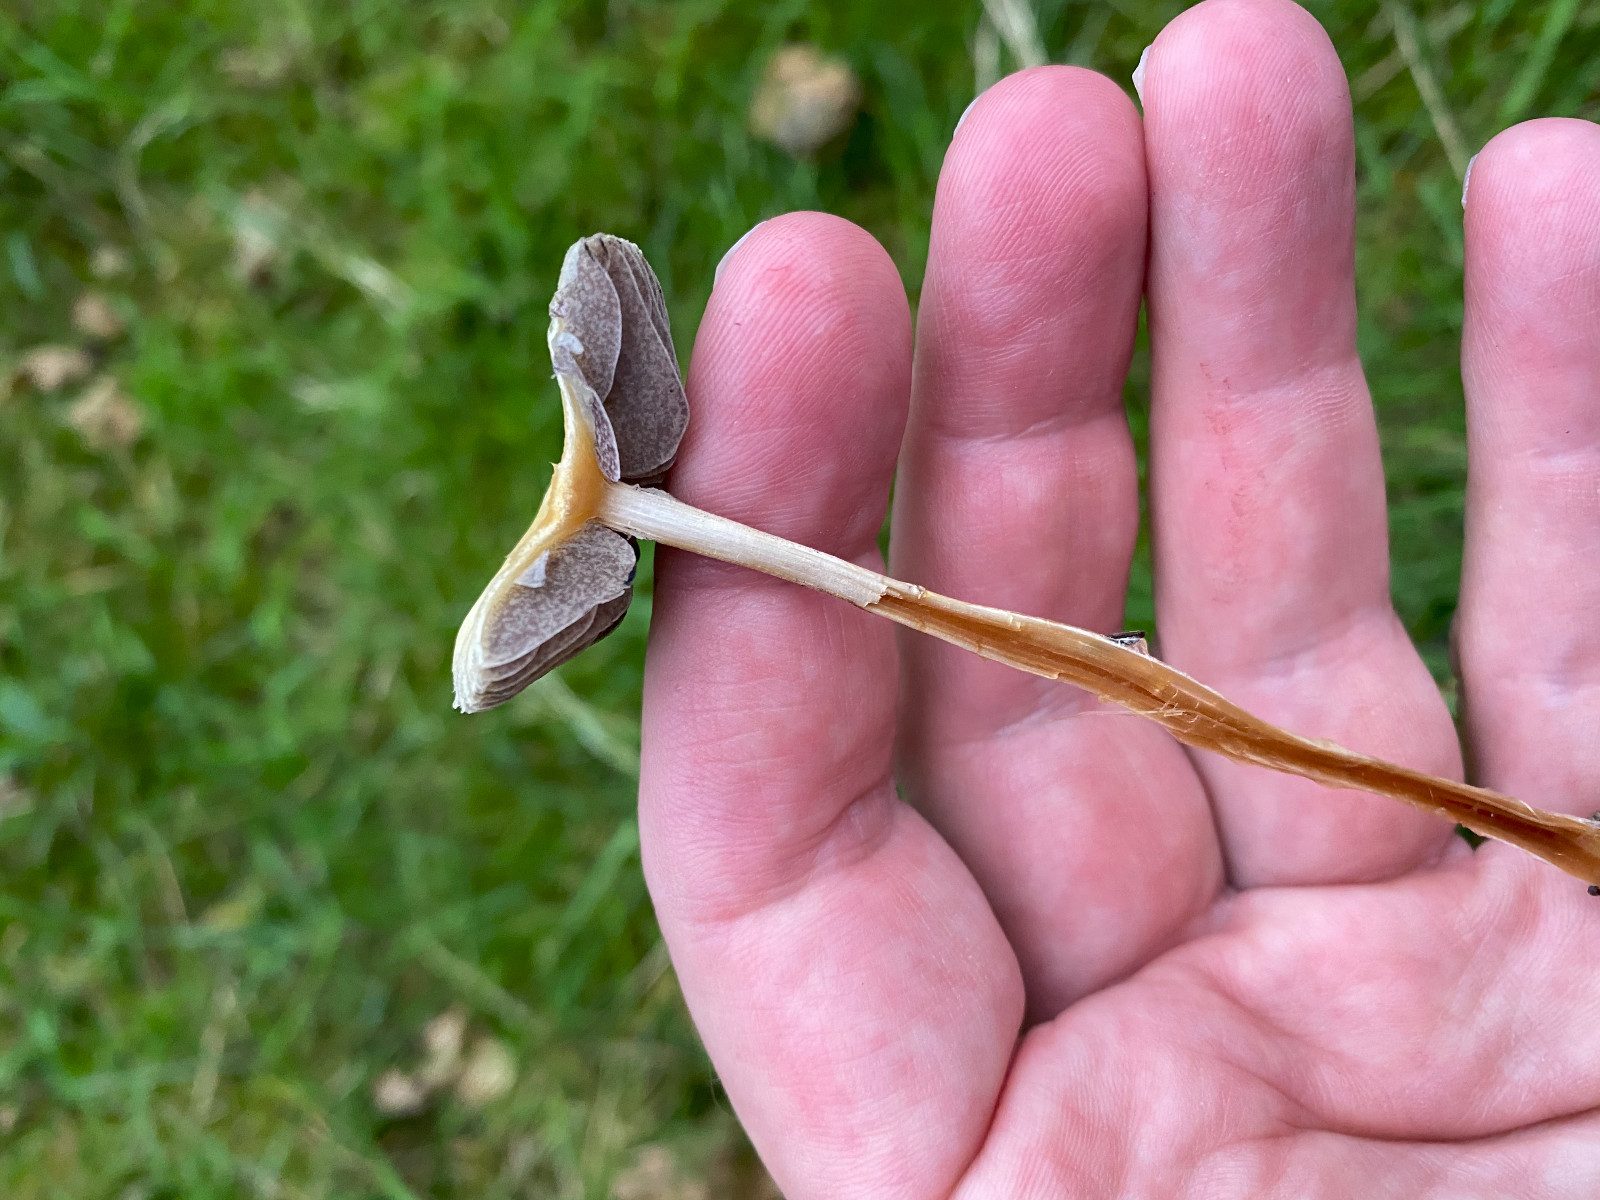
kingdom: Fungi
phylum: Basidiomycota
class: Agaricomycetes
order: Agaricales
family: Strophariaceae
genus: Protostropharia
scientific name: Protostropharia semiglobata
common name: halvkugleformet bredblad
